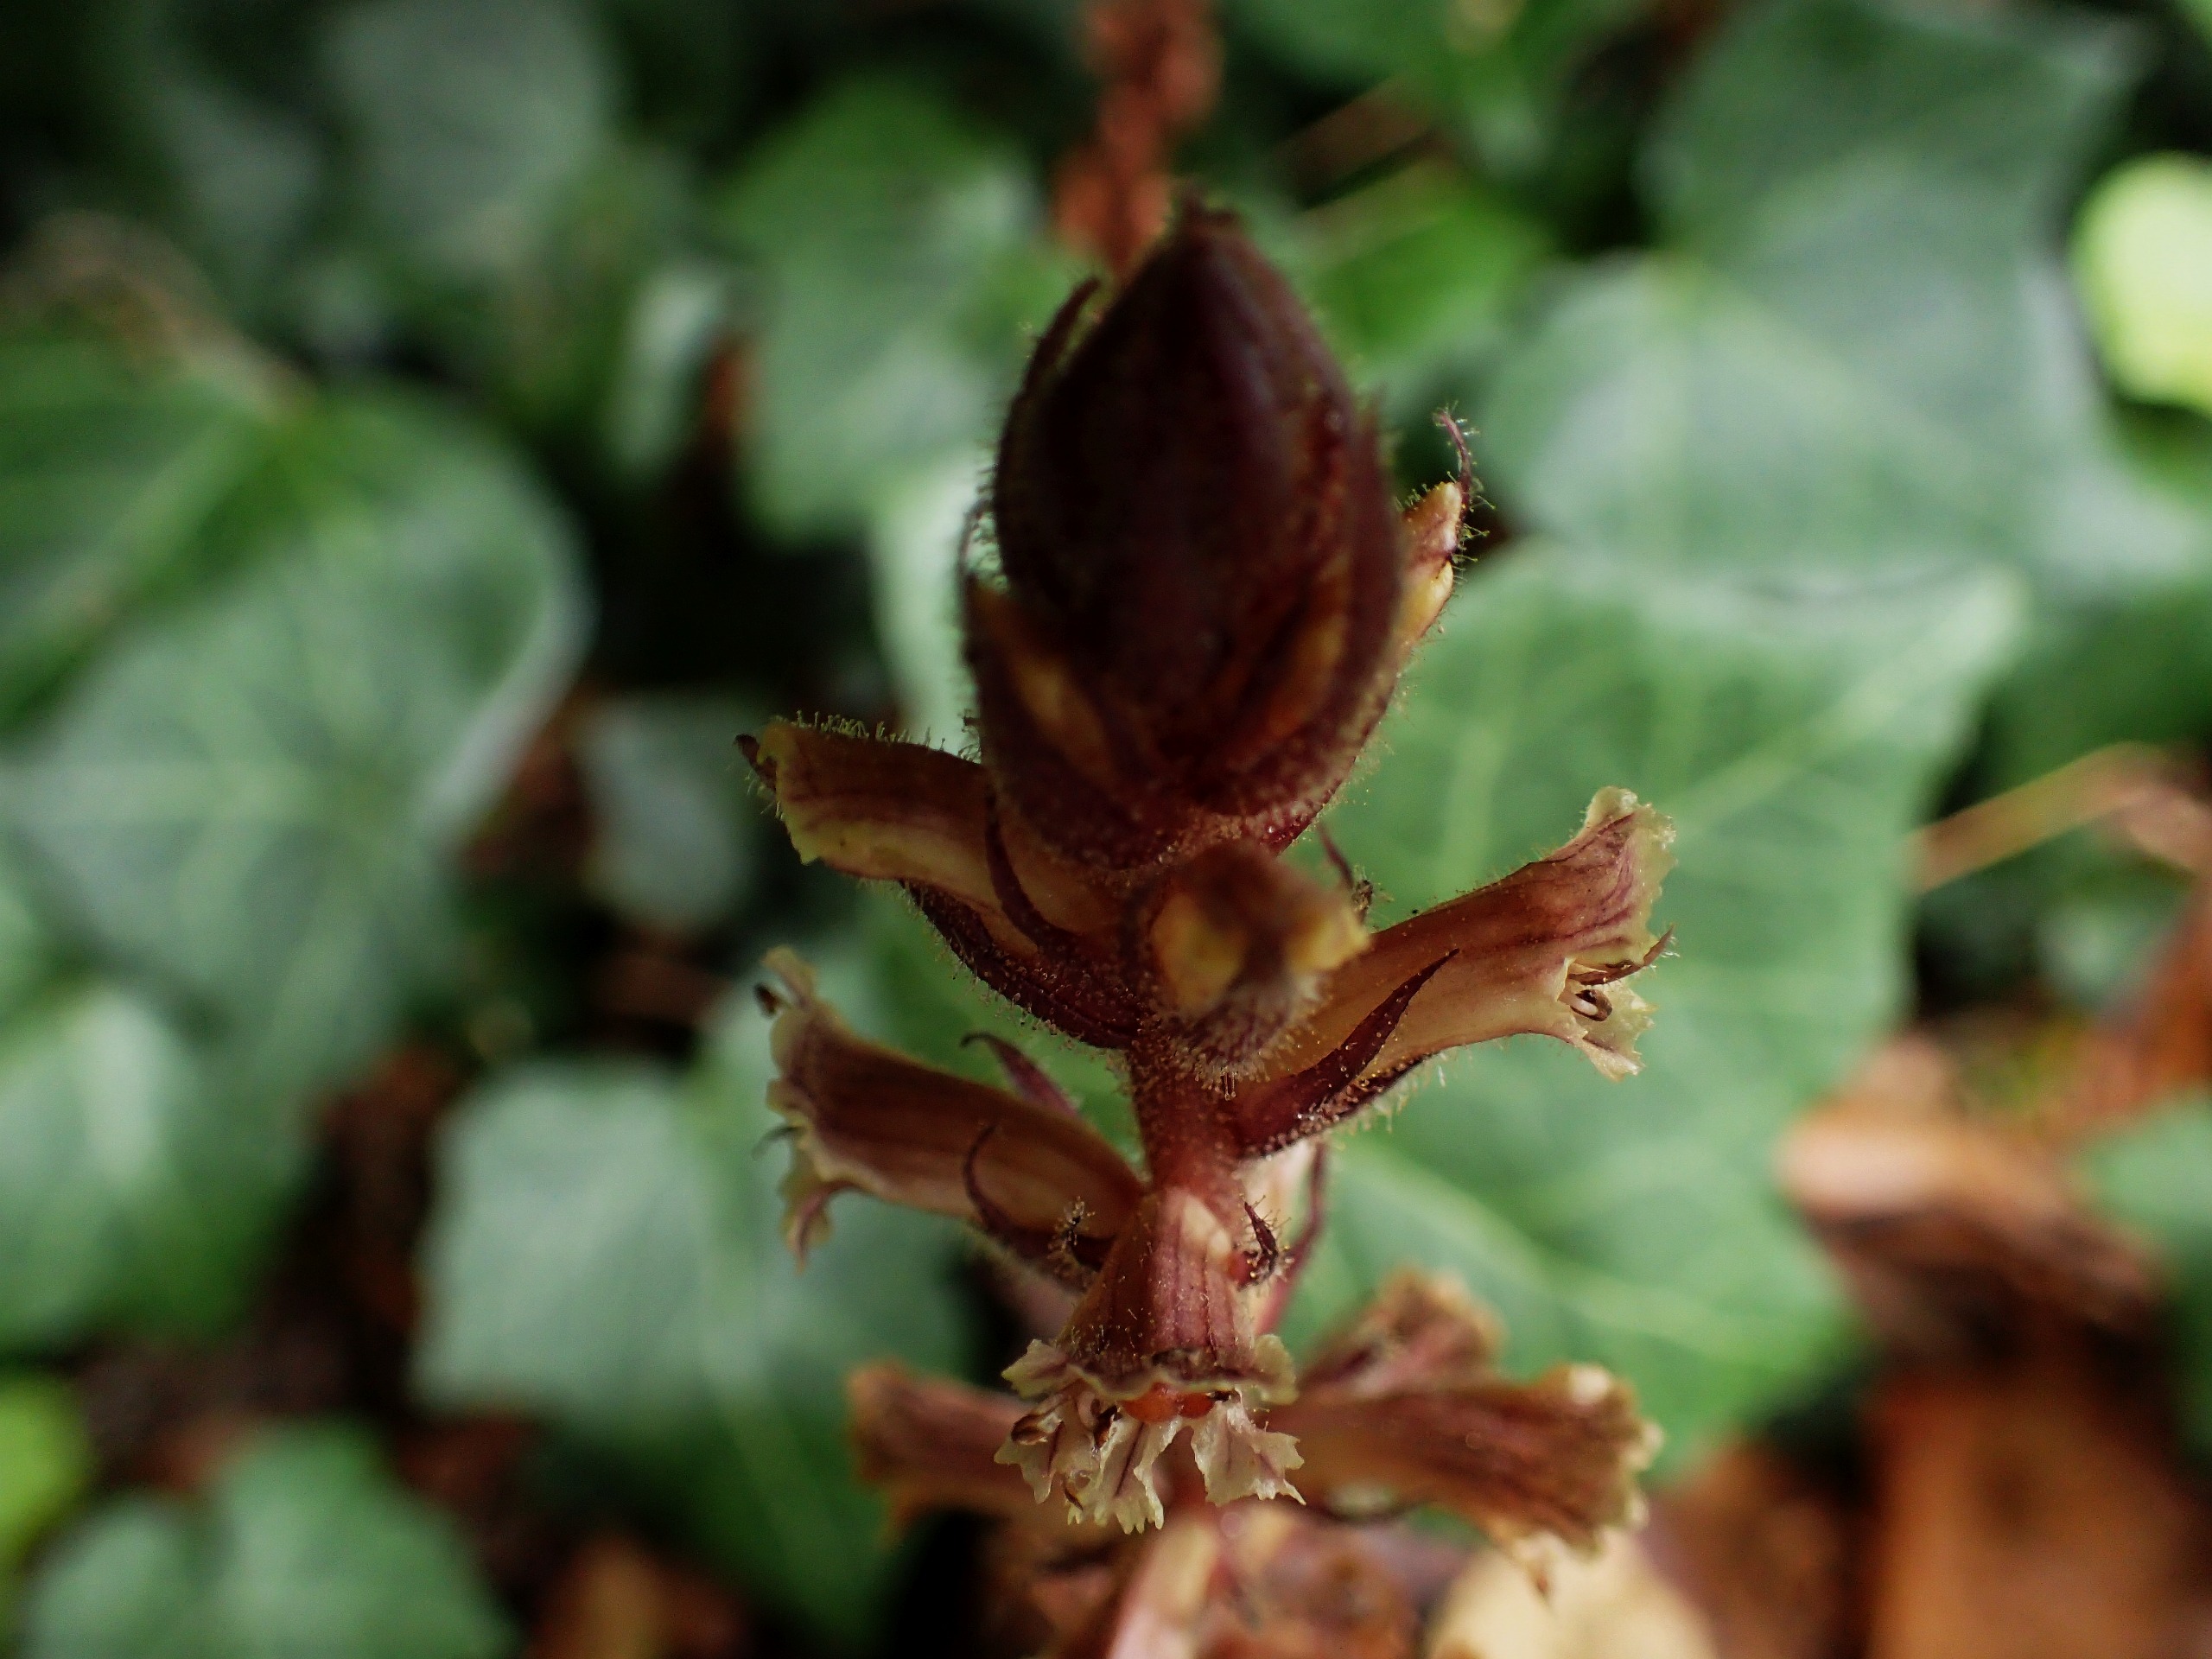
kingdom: Plantae
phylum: Tracheophyta
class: Magnoliopsida
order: Lamiales
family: Orobanchaceae
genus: Orobanche
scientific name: Orobanche hederae
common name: Vedbend-gyvelkvæler
